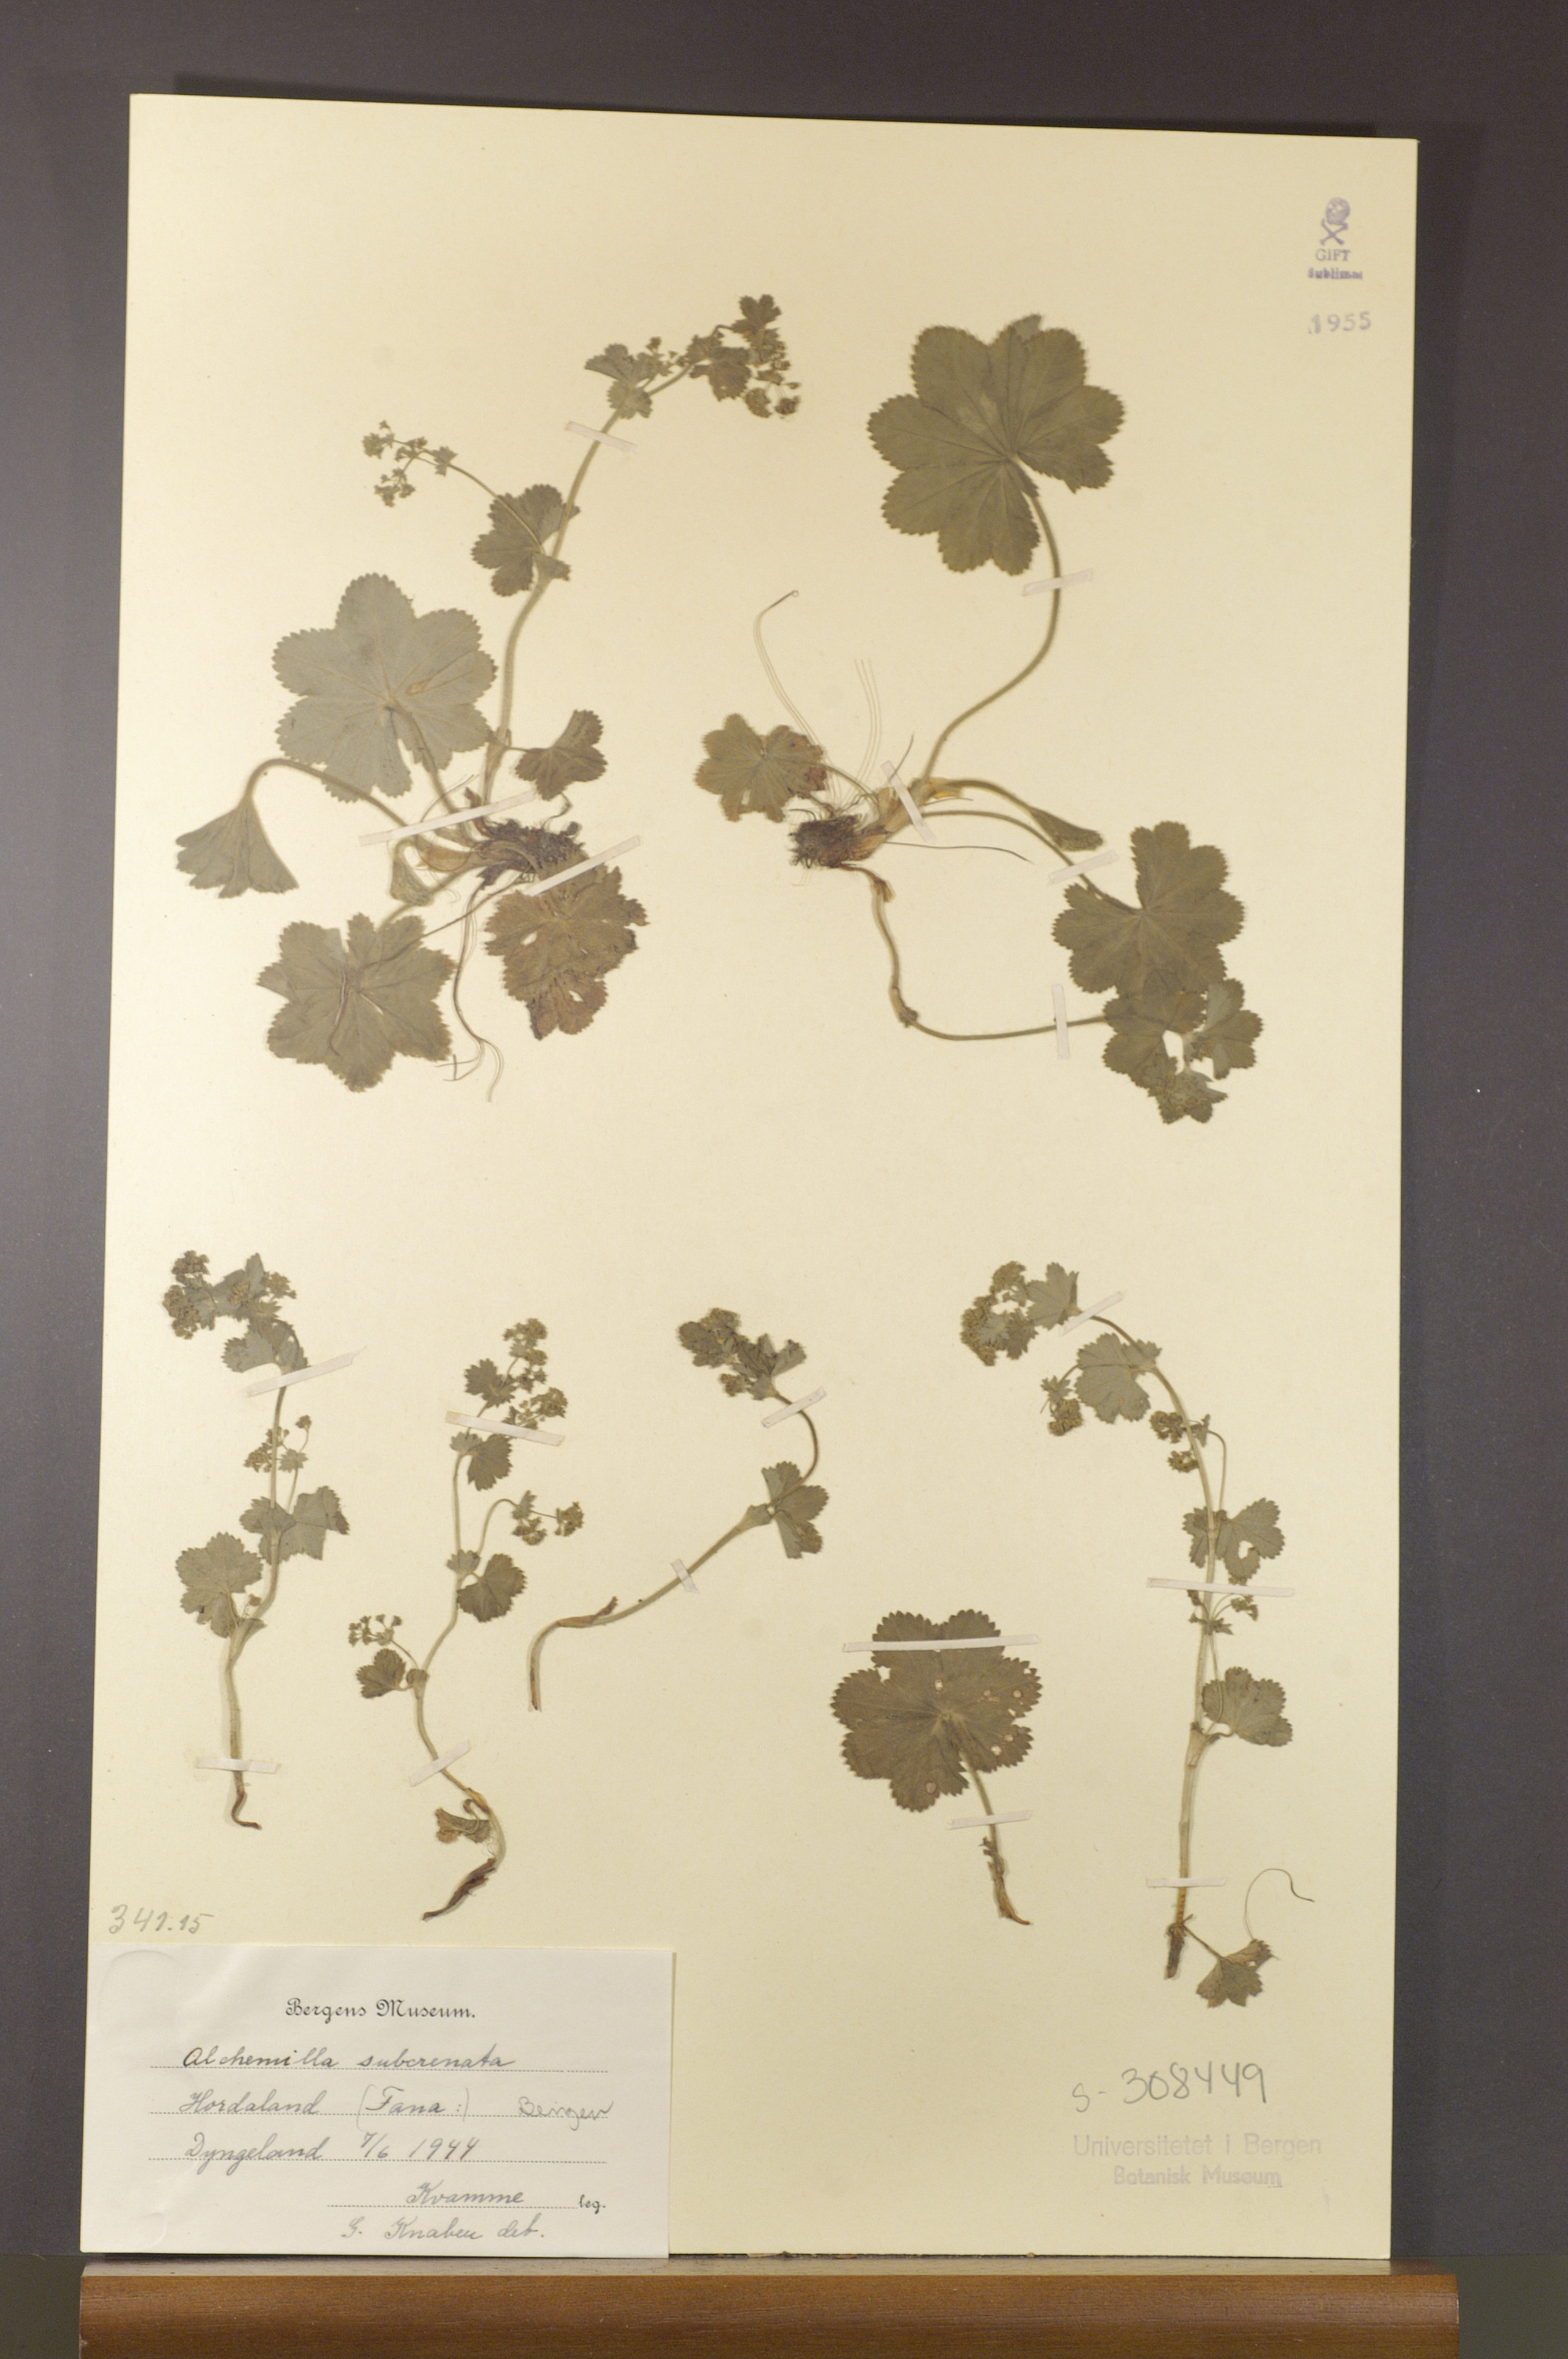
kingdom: Plantae
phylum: Tracheophyta
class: Magnoliopsida
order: Rosales
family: Rosaceae
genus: Alchemilla
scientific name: Alchemilla subcrenata
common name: Broadtooth lady's mantle
